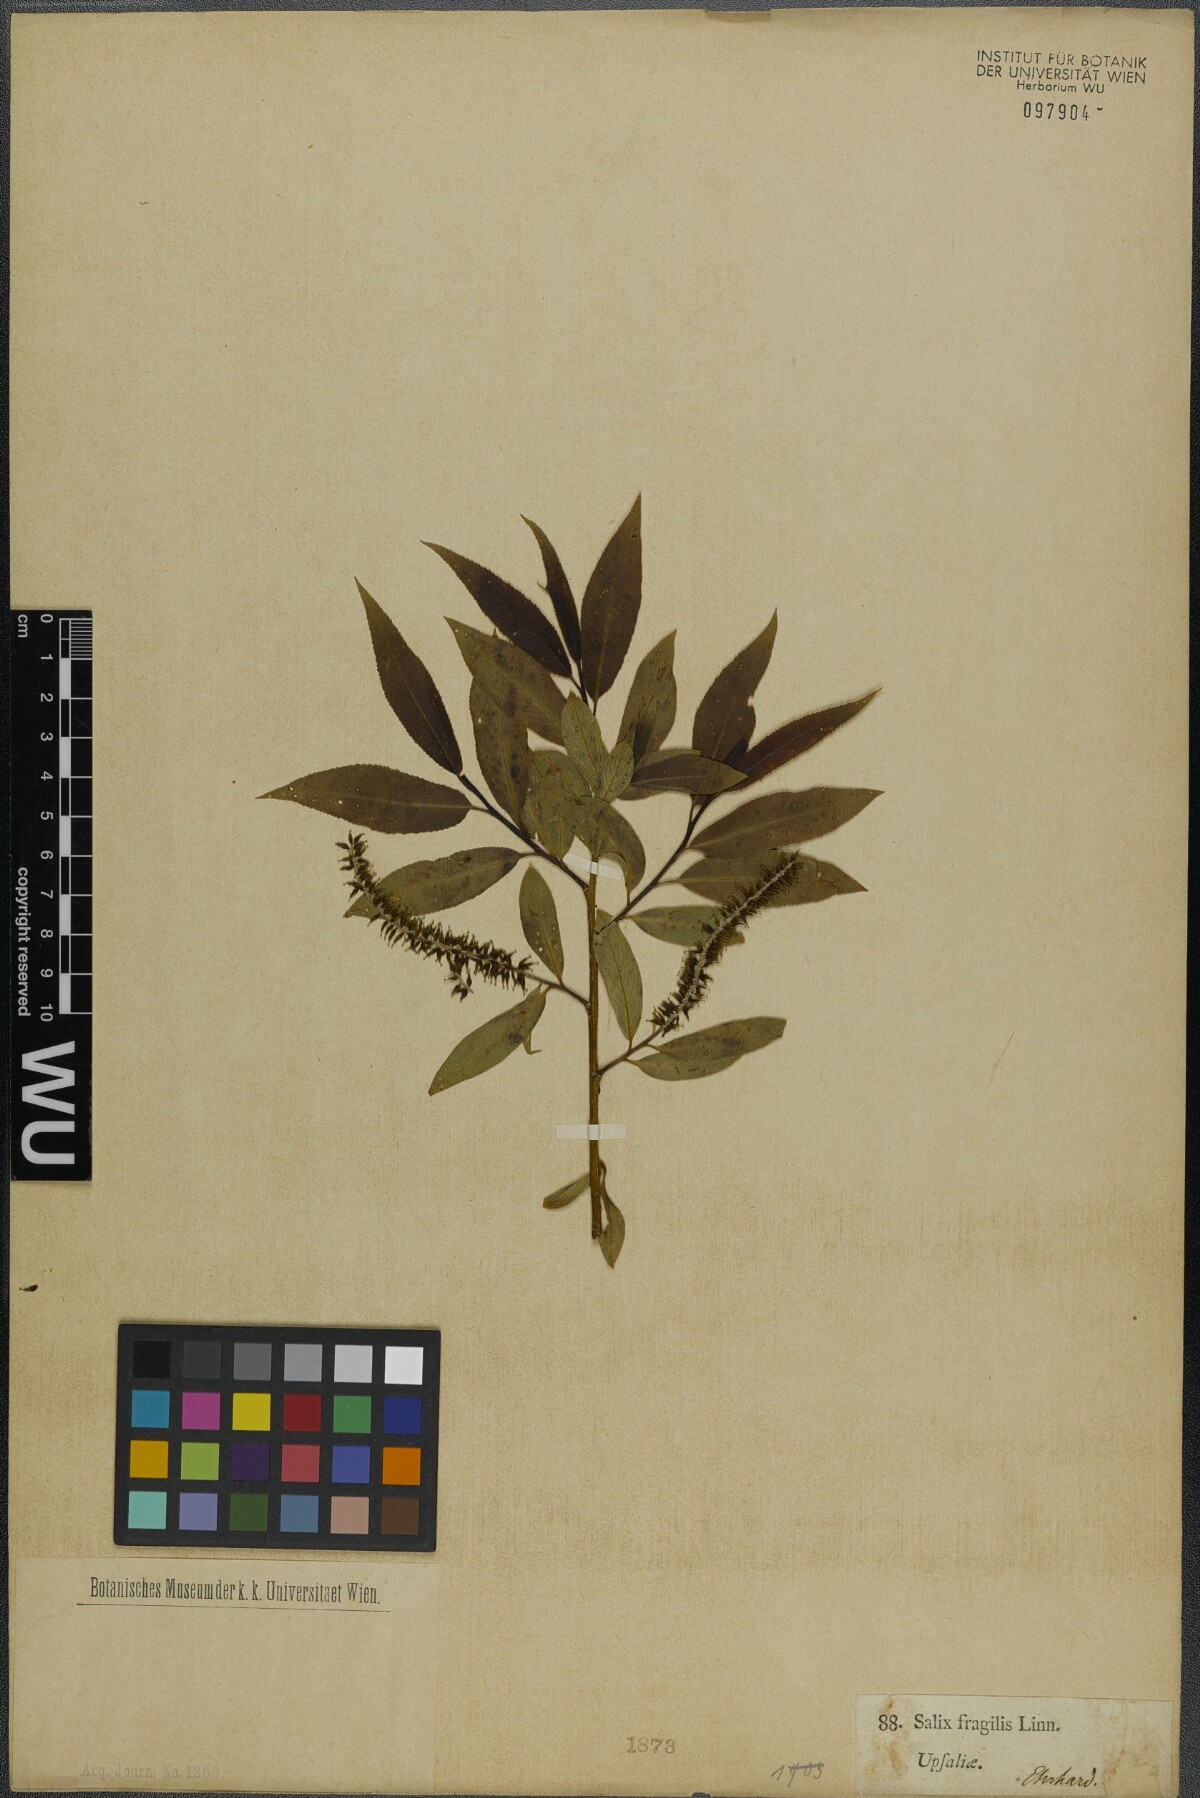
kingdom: Plantae
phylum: Tracheophyta
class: Magnoliopsida
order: Malpighiales
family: Salicaceae
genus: Salix
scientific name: Salix fragilis
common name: Crack willow
